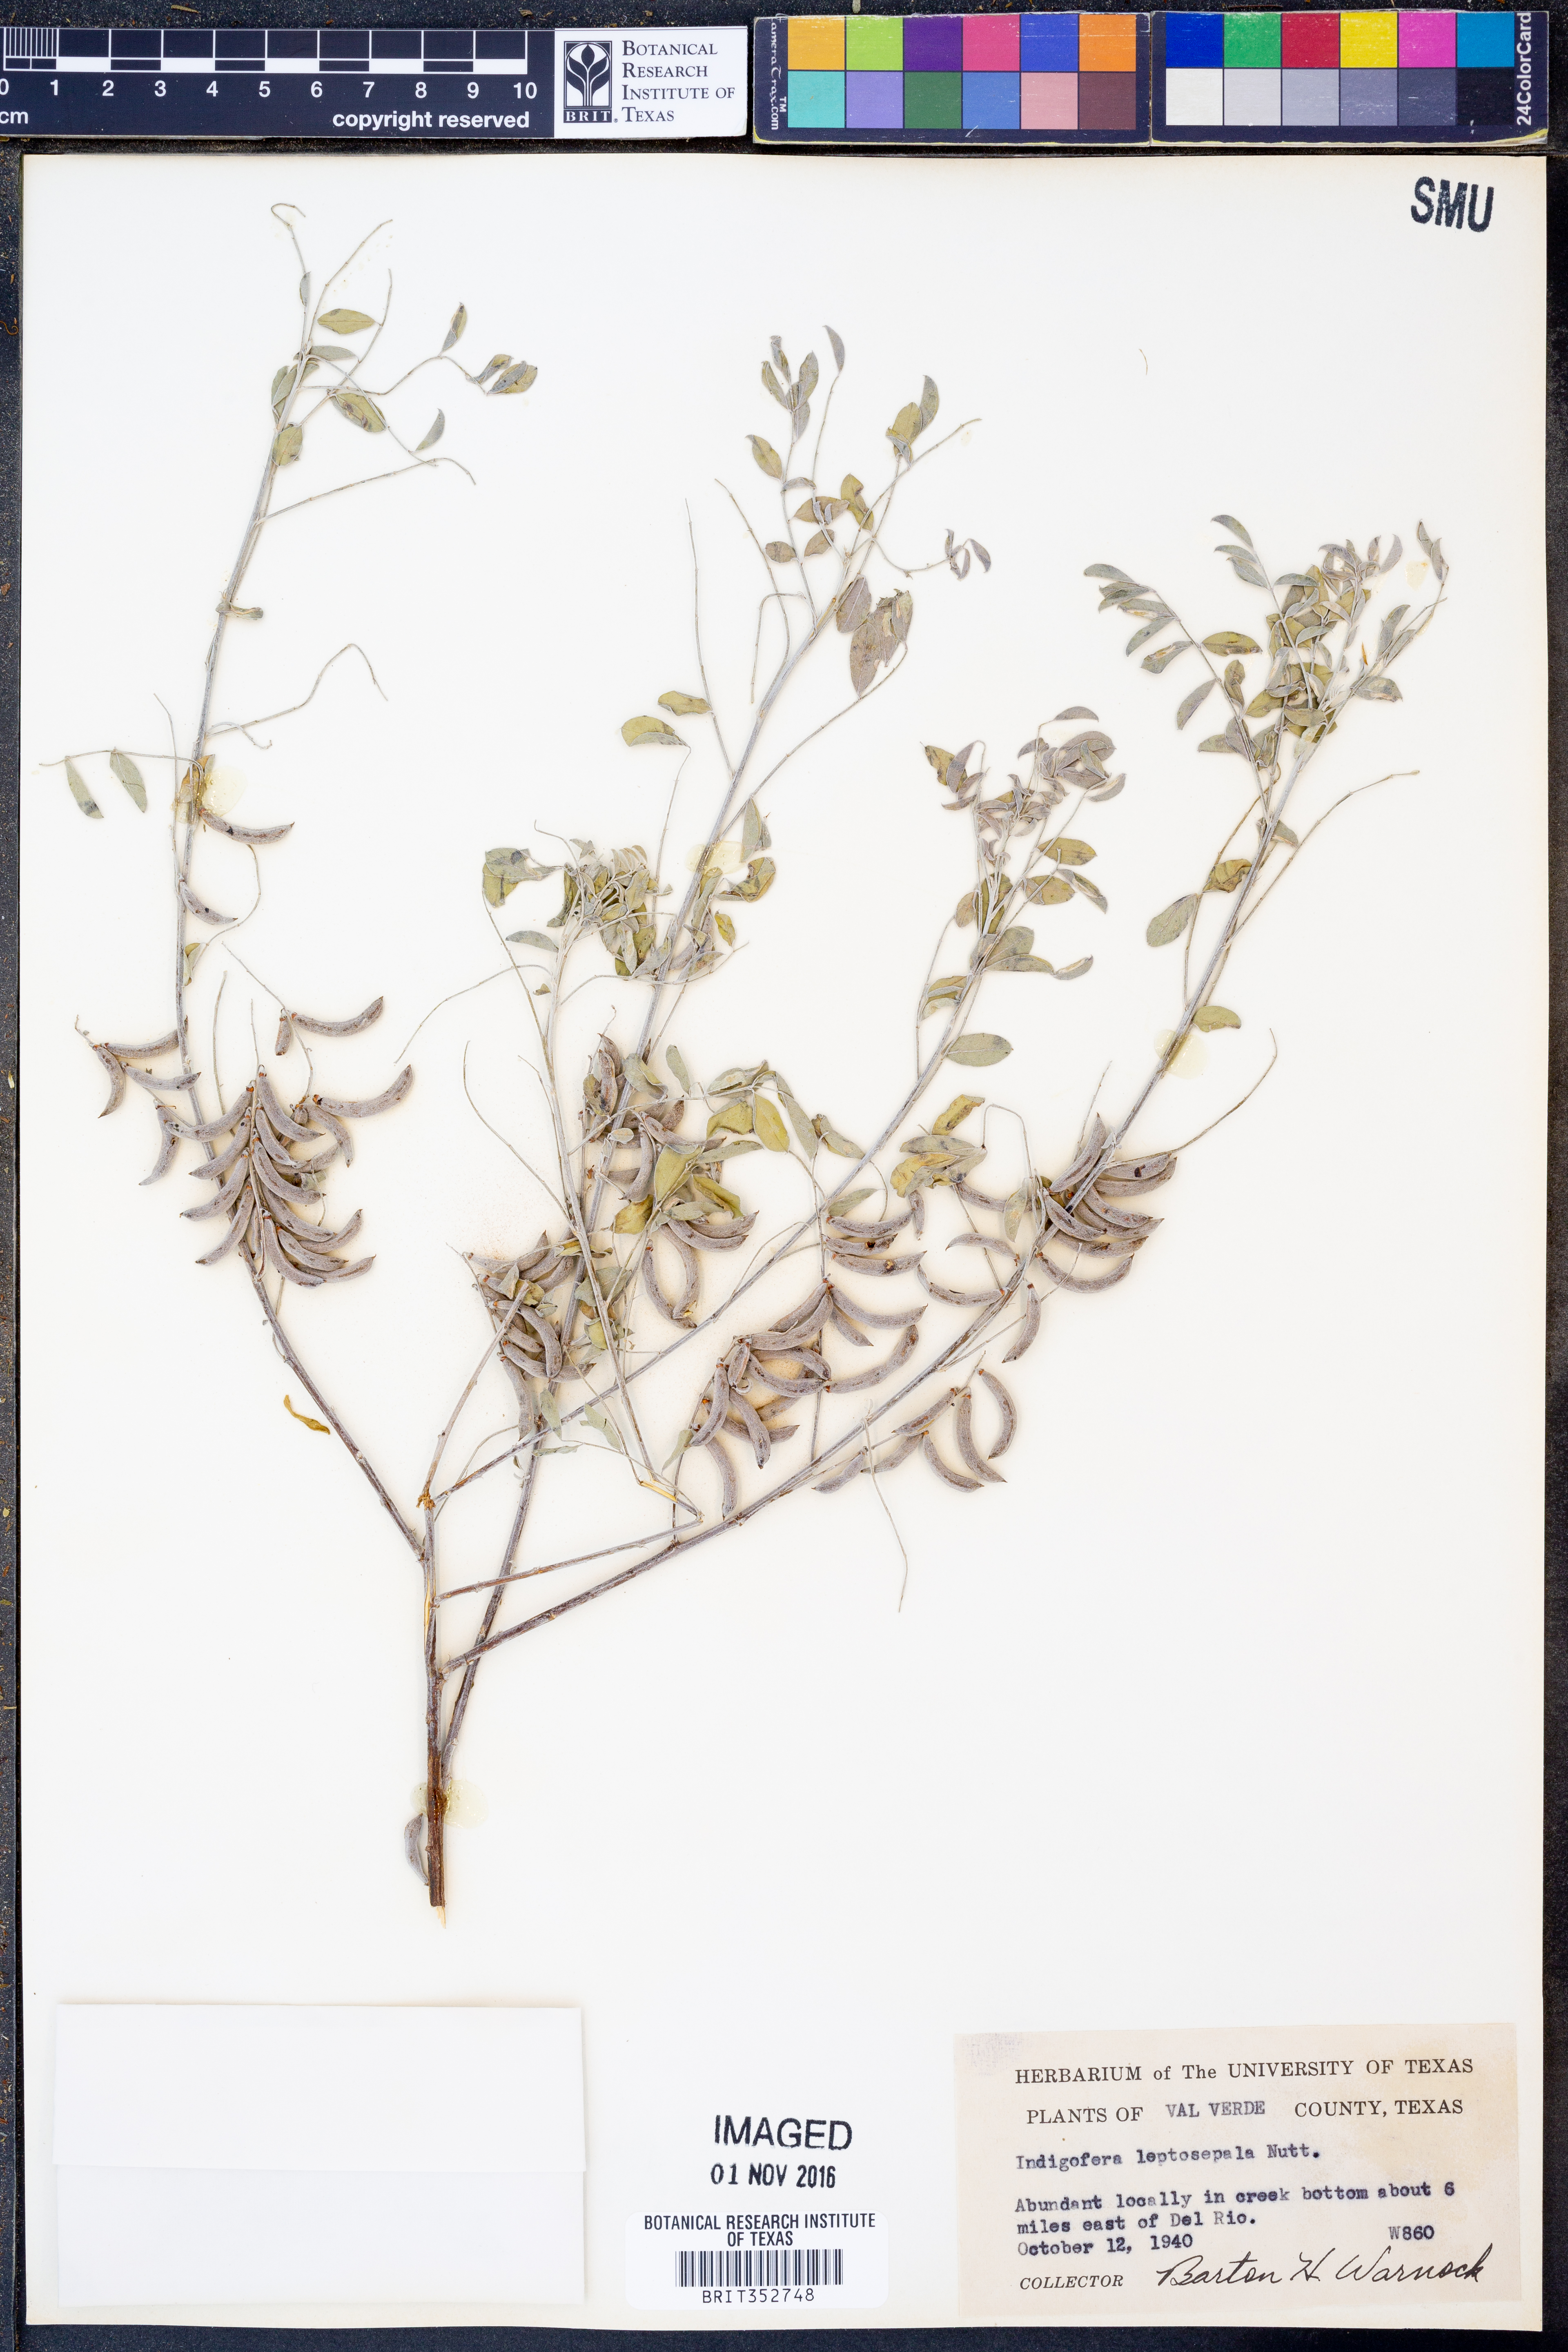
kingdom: Plantae
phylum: Tracheophyta
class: Magnoliopsida
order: Fabales
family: Fabaceae
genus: Indigofera
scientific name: Indigofera argutidens
